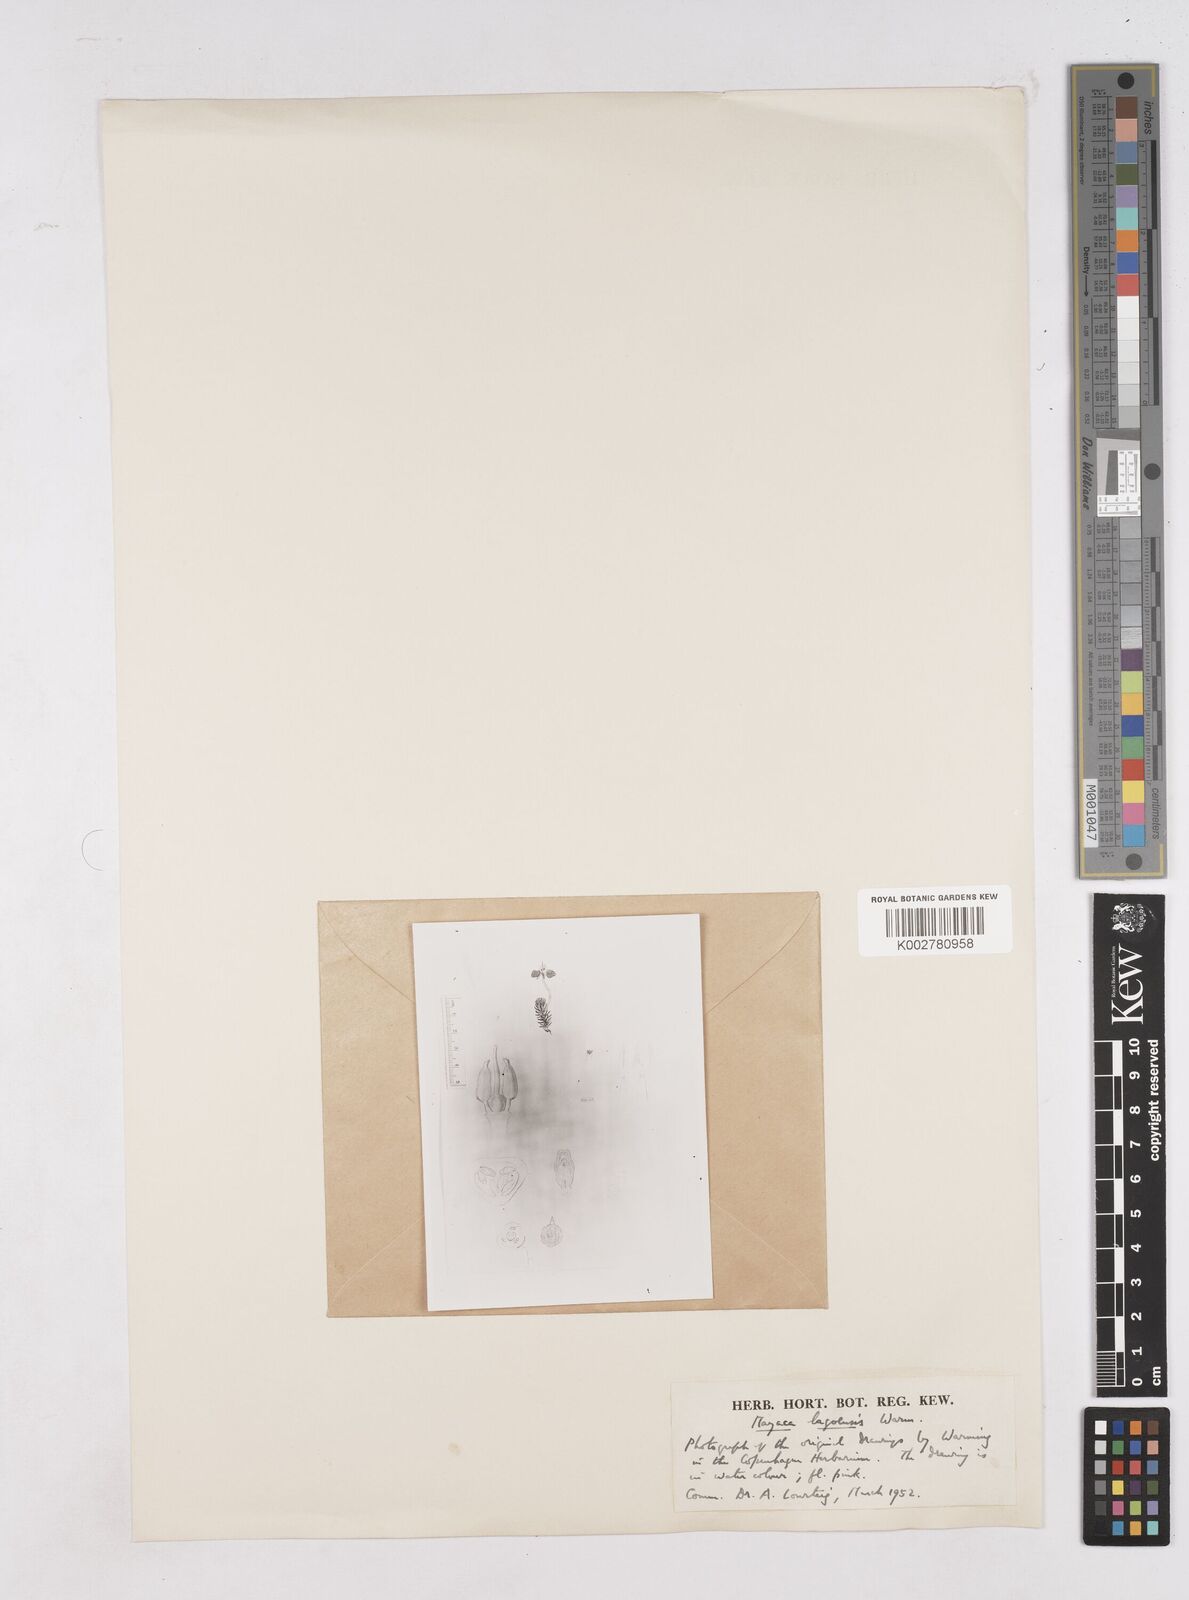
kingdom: Plantae
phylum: Tracheophyta
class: Liliopsida
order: Poales
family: Mayacaceae
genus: Mayaca
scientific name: Mayaca sellowiana
